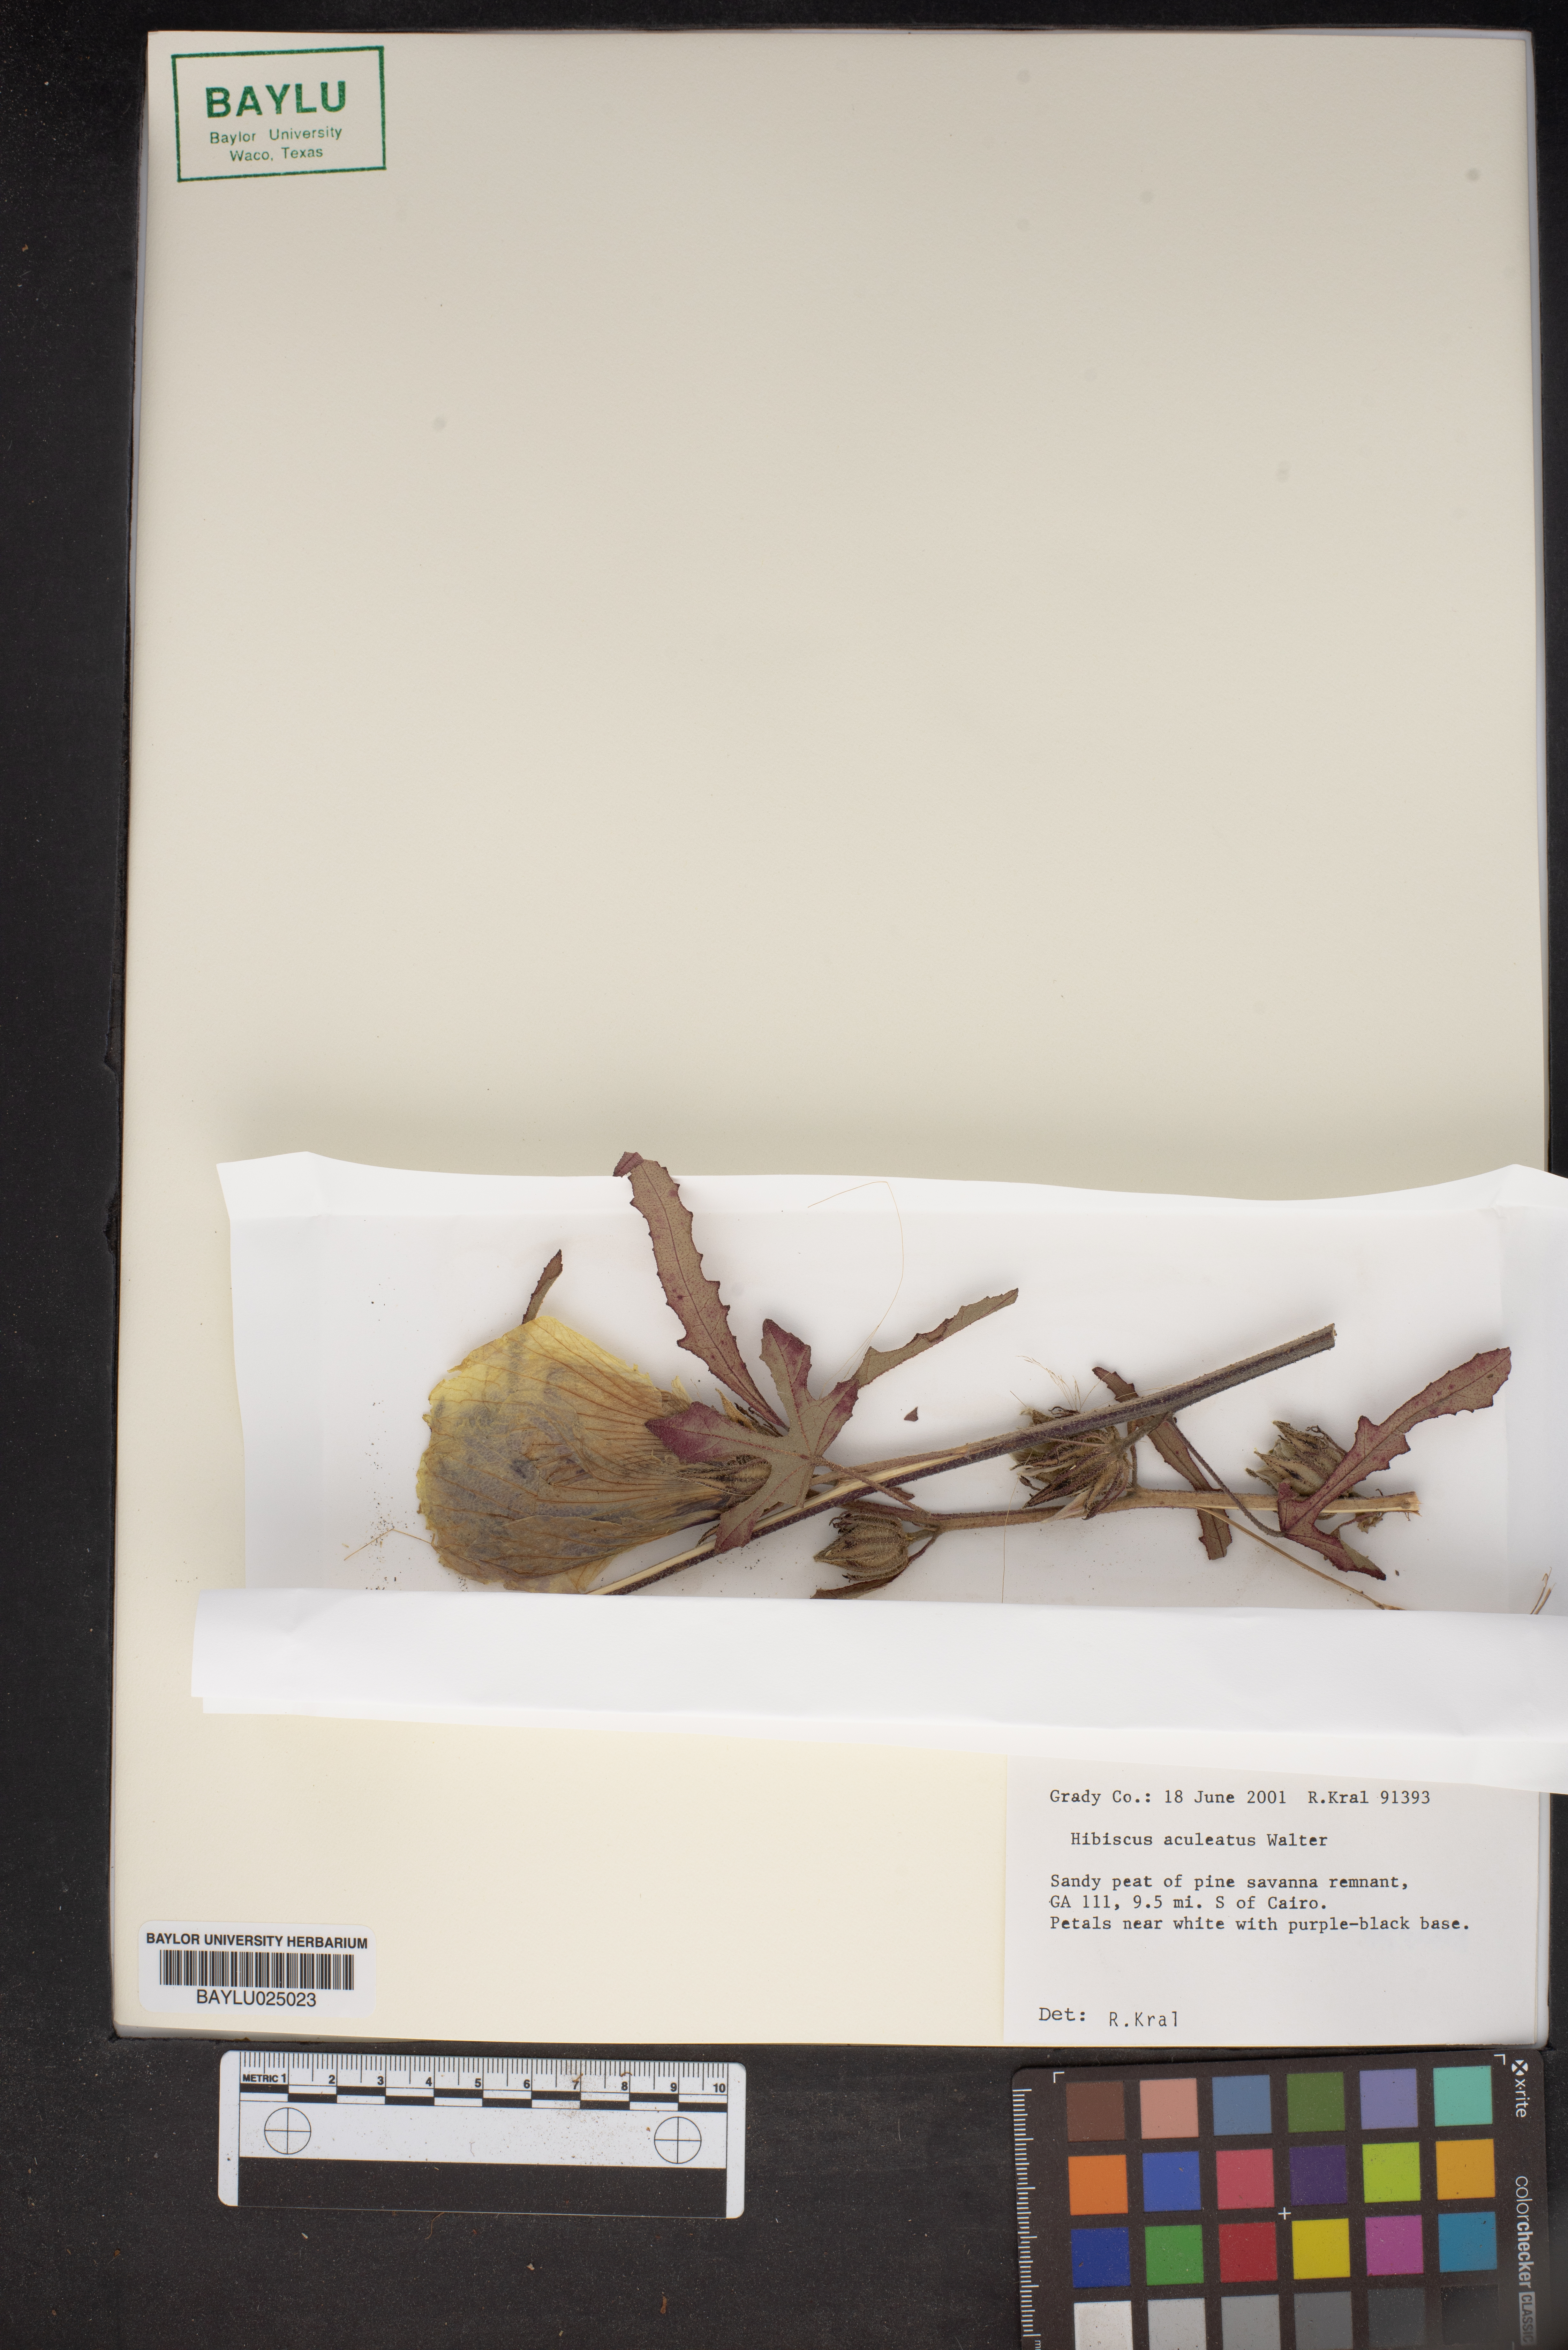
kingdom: Plantae
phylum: Tracheophyta
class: Magnoliopsida
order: Malvales
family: Malvaceae
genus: Hibiscus
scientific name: Hibiscus aculeatus
